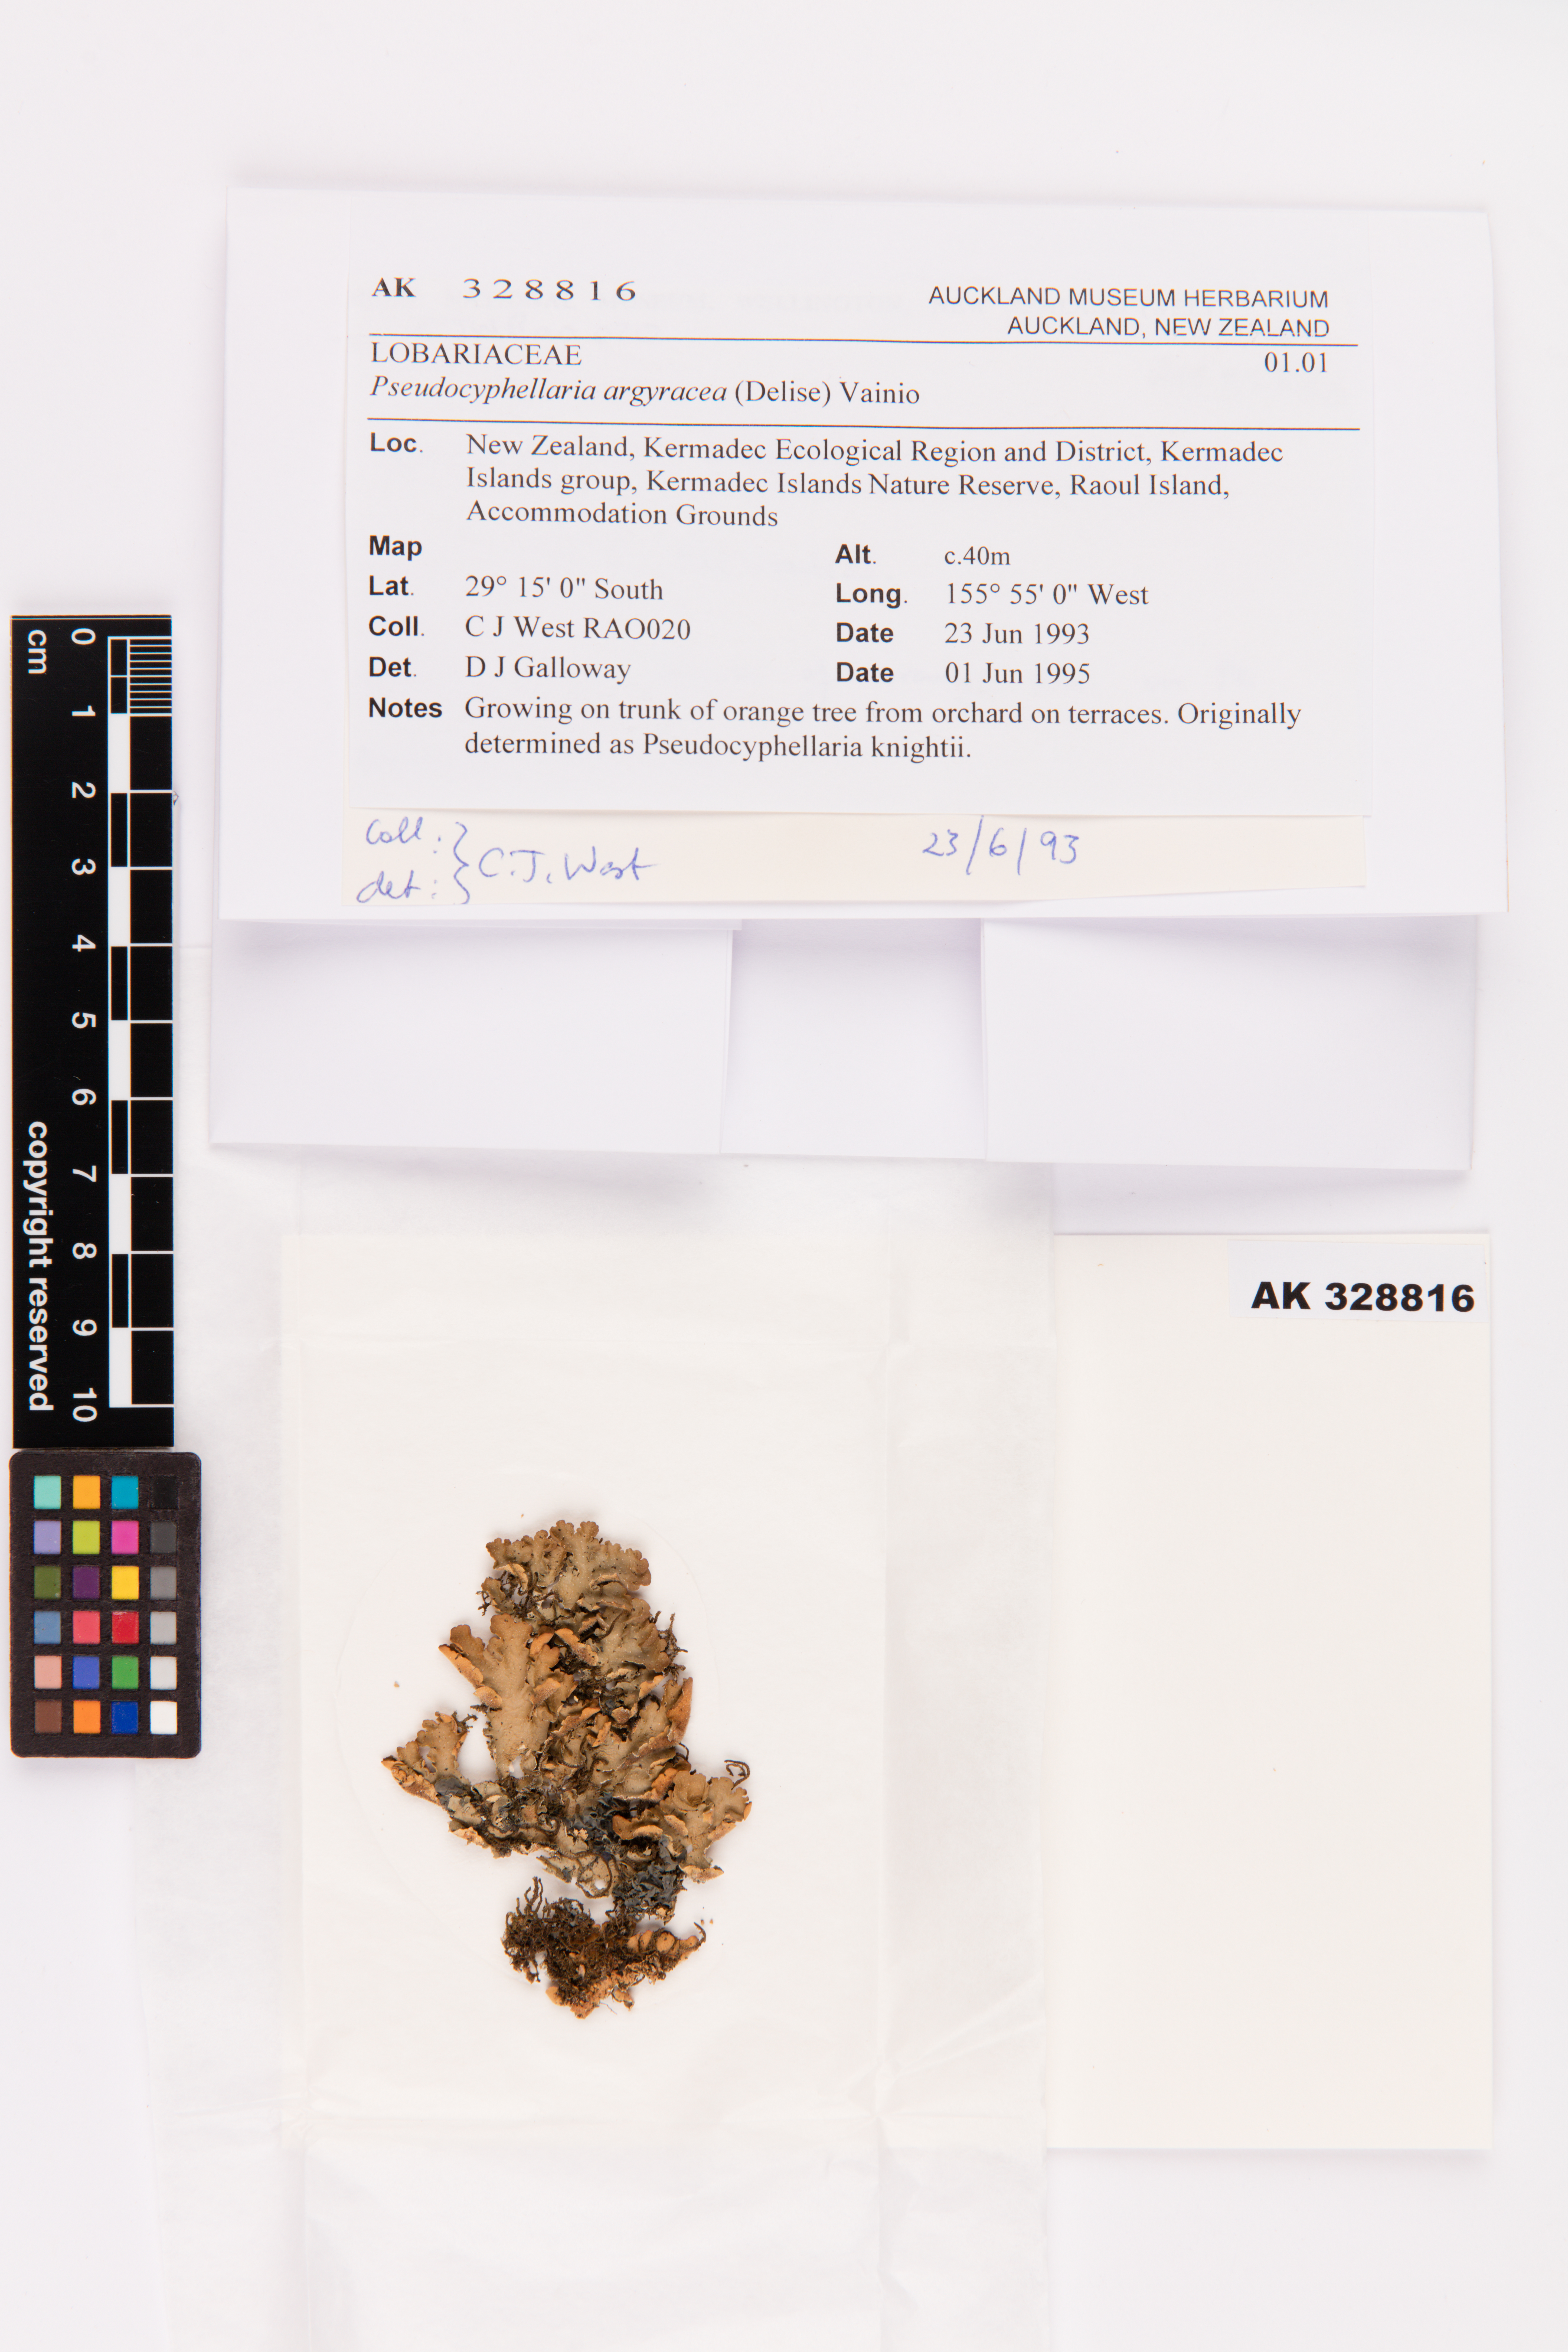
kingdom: Fungi
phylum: Ascomycota
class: Lecanoromycetes
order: Peltigerales
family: Lobariaceae
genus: Pseudocyphellaria
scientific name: Pseudocyphellaria argyracea
